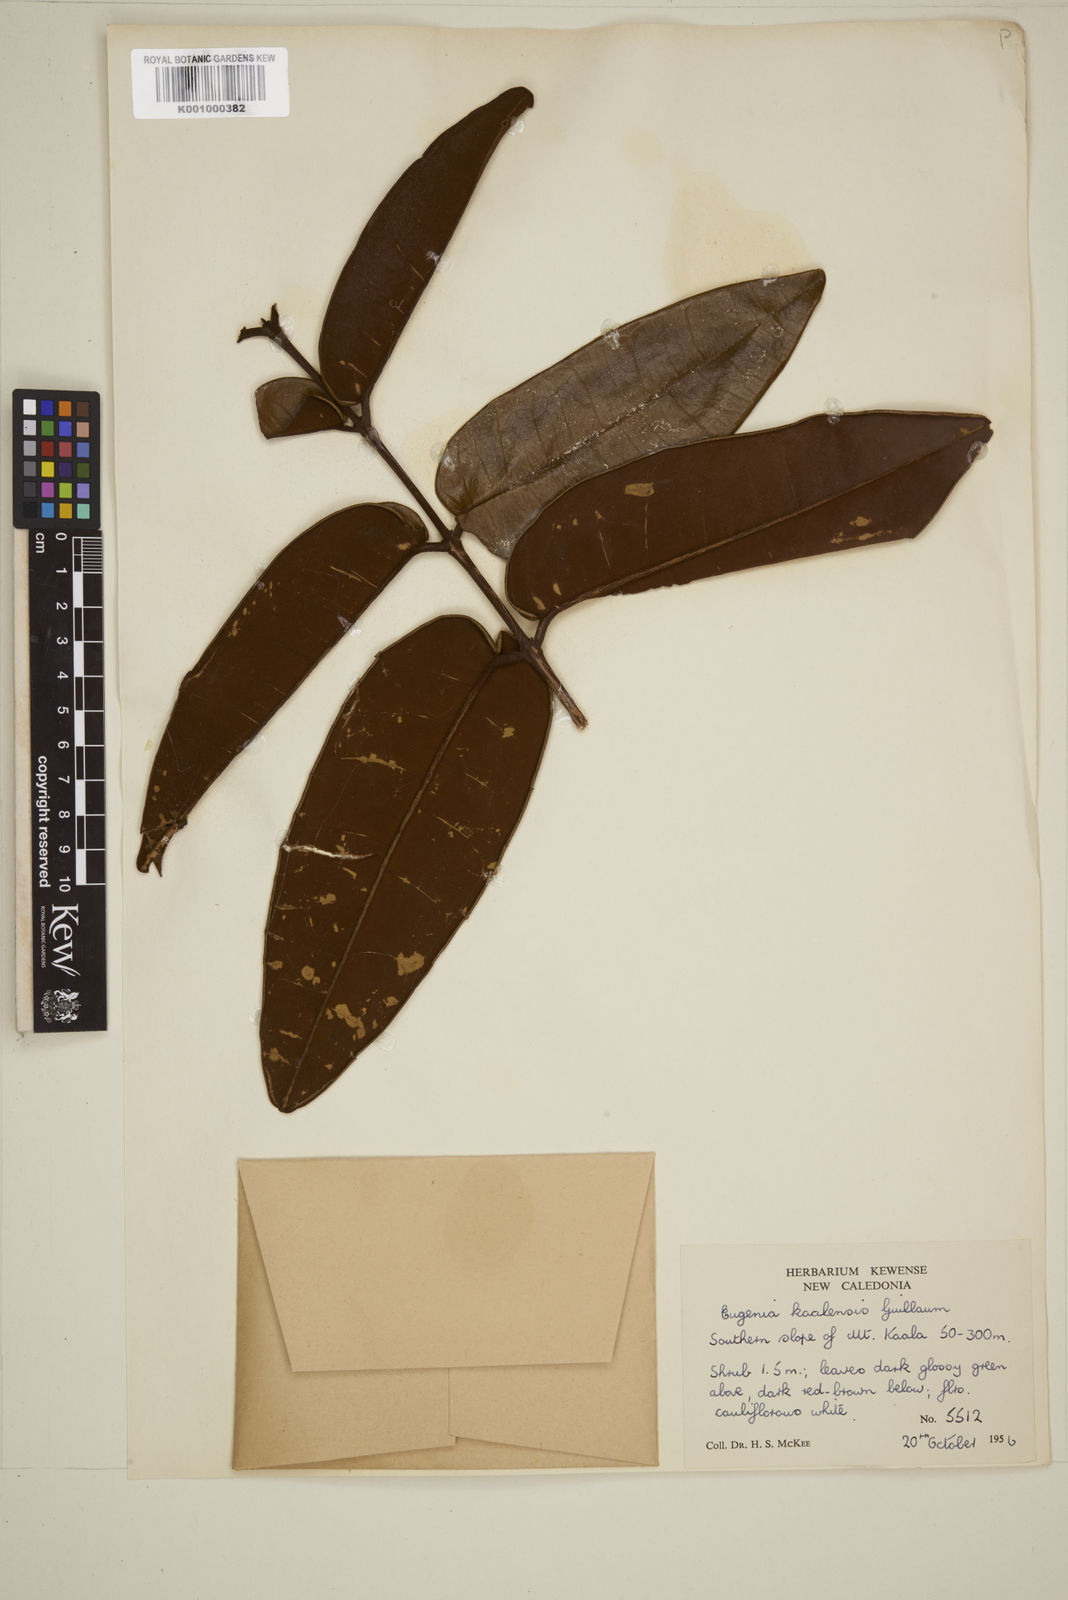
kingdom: Plantae
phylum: Tracheophyta
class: Magnoliopsida
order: Myrtales
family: Myrtaceae
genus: Eugenia
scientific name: Eugenia kaalensis
